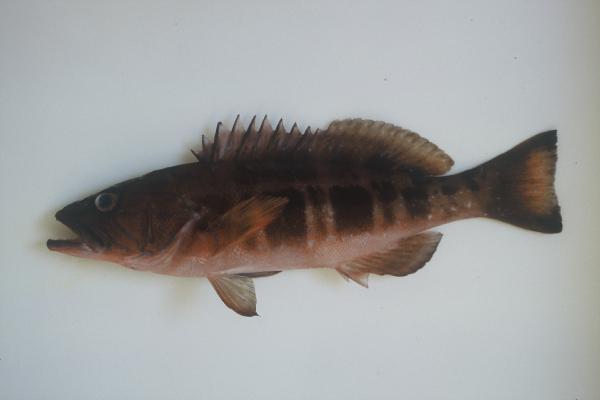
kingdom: Animalia
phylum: Chordata
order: Perciformes
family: Serranidae
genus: Serranus
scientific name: Serranus atricauda
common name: Blacktail comber
